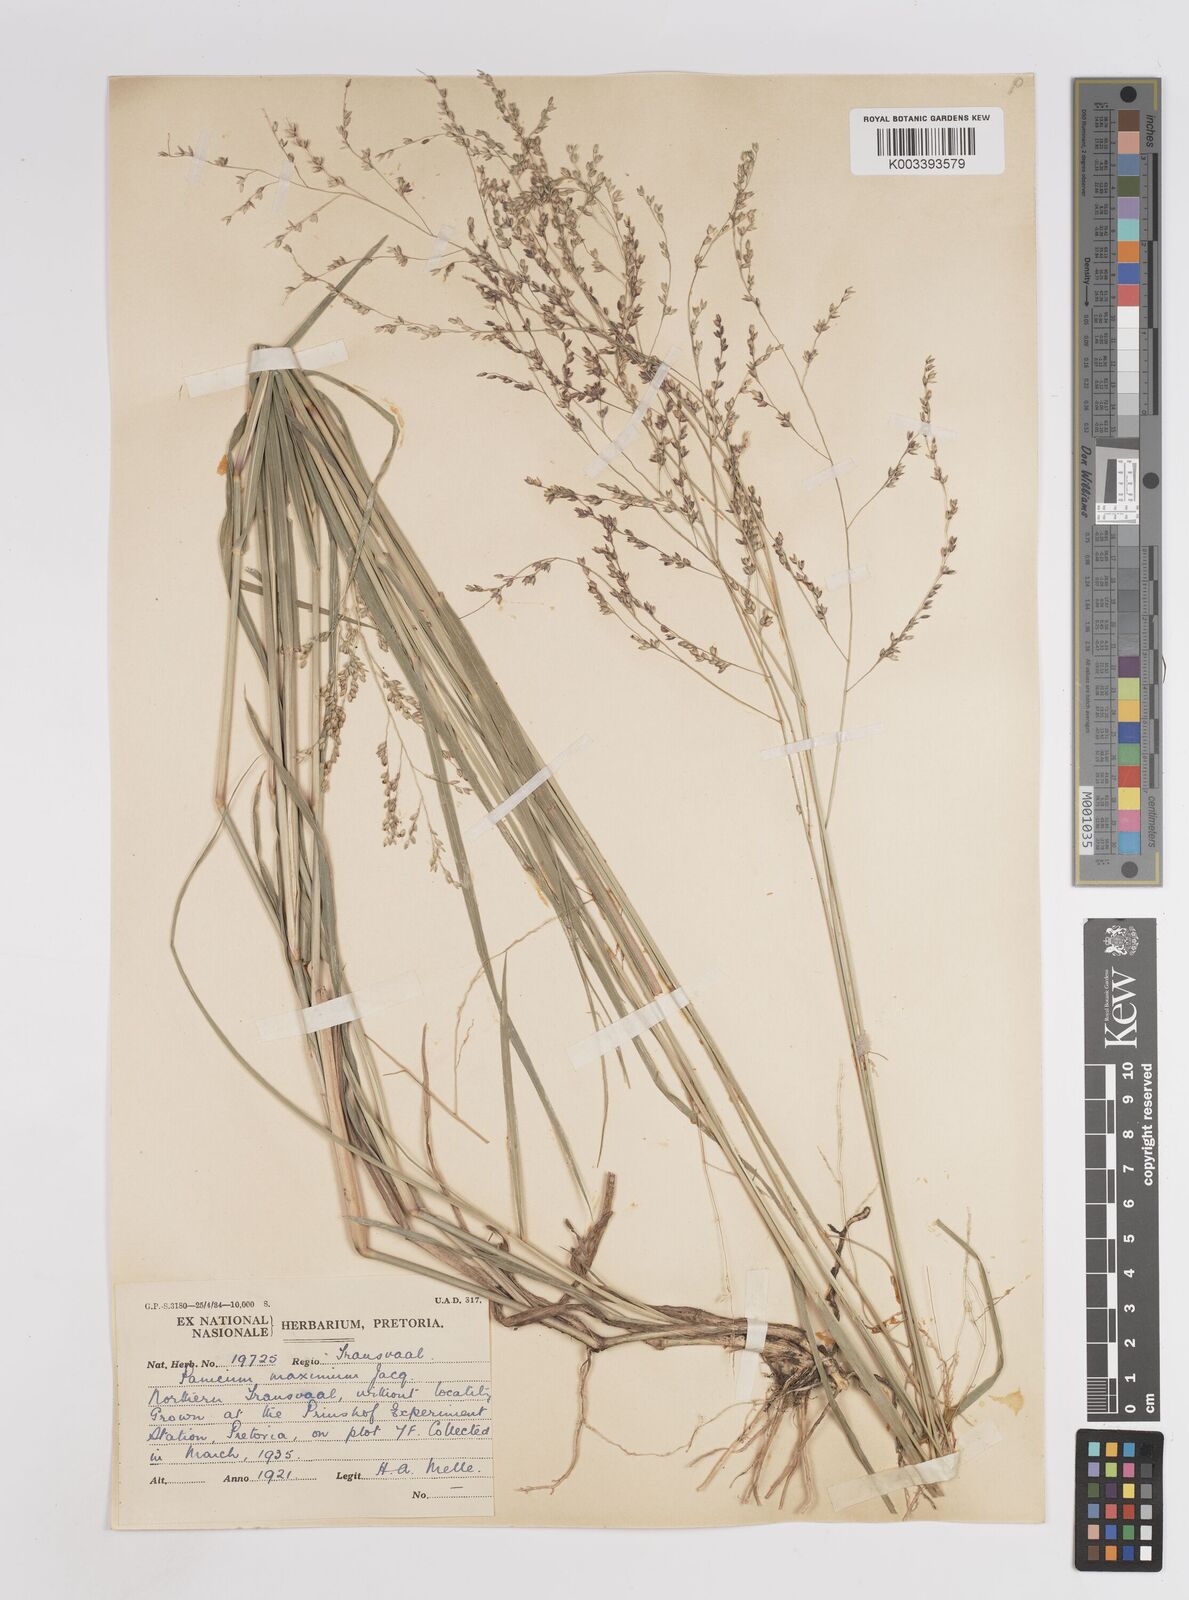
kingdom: Plantae
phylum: Tracheophyta
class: Liliopsida
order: Poales
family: Poaceae
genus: Megathyrsus
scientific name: Megathyrsus maximus
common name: Guineagrass
